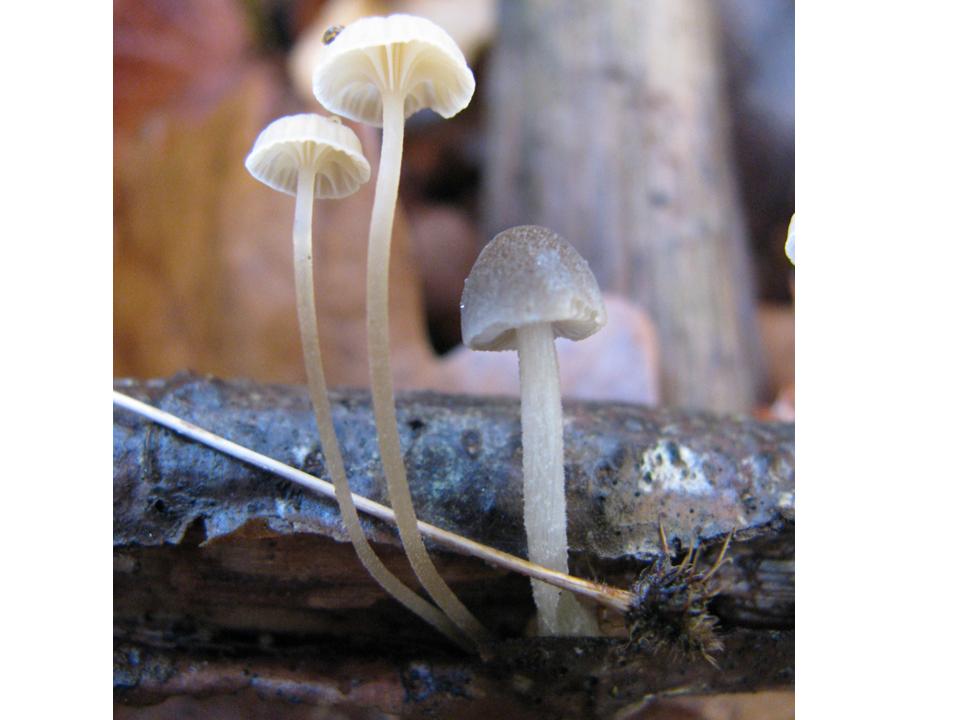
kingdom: Fungi
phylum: Basidiomycota
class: Agaricomycetes
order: Agaricales
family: Pluteaceae
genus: Pluteus
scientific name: Pluteus semibulbosus
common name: knoldet skærmhat
